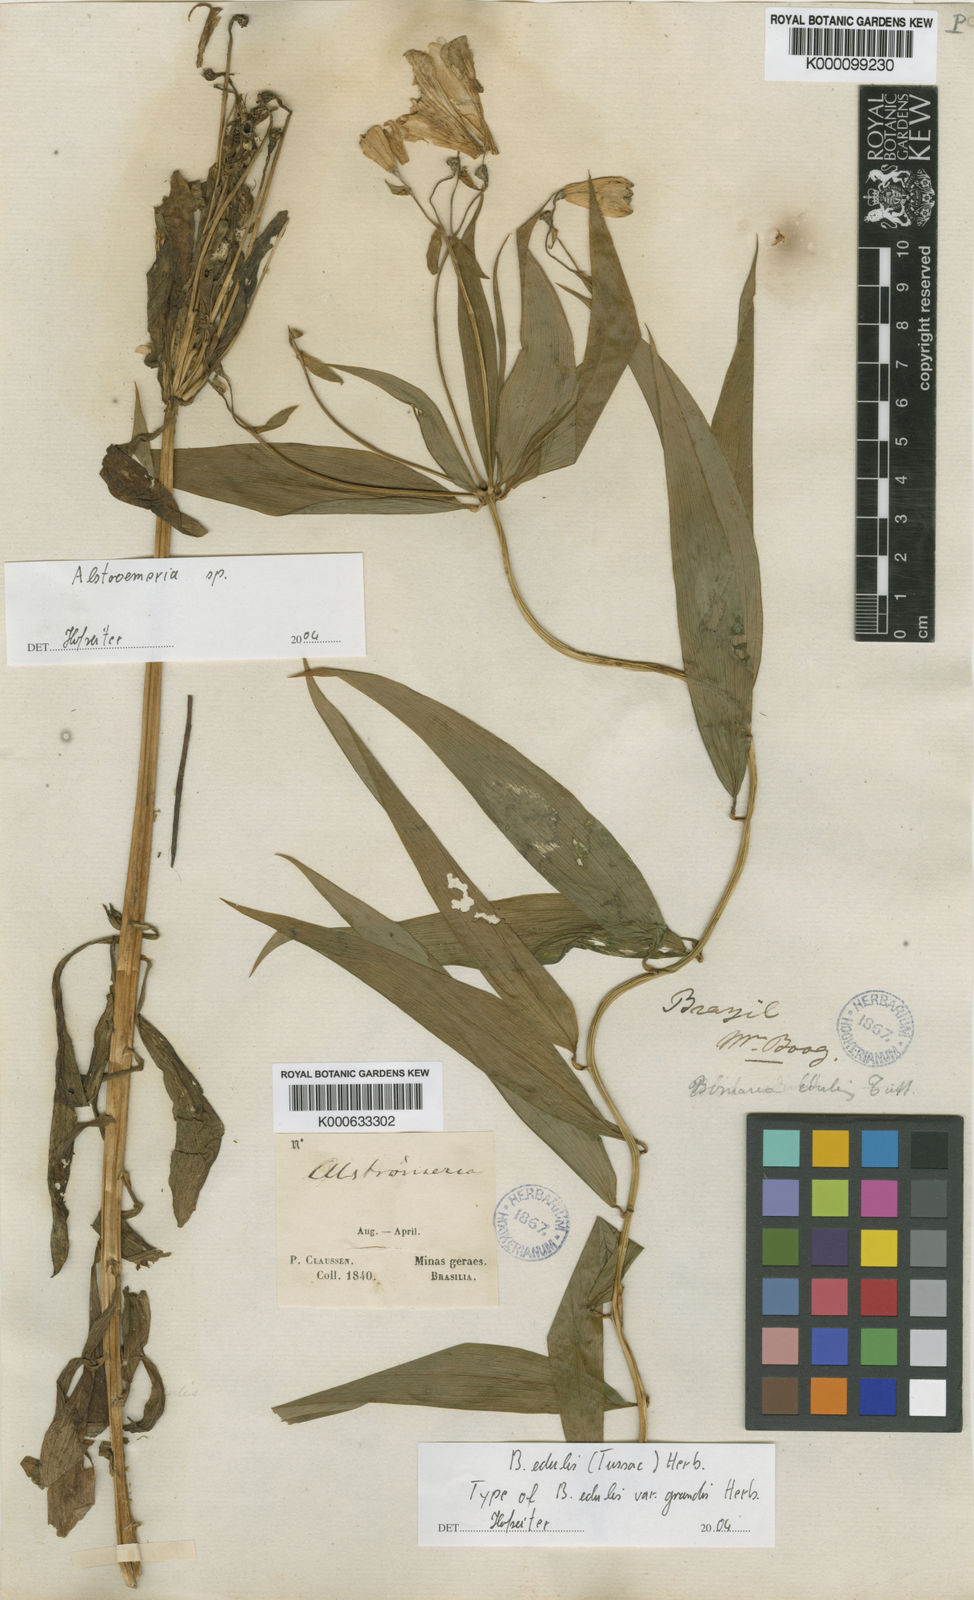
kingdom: Plantae
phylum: Tracheophyta
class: Liliopsida
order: Liliales
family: Alstroemeriaceae
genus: Bomarea
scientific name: Bomarea edulis
